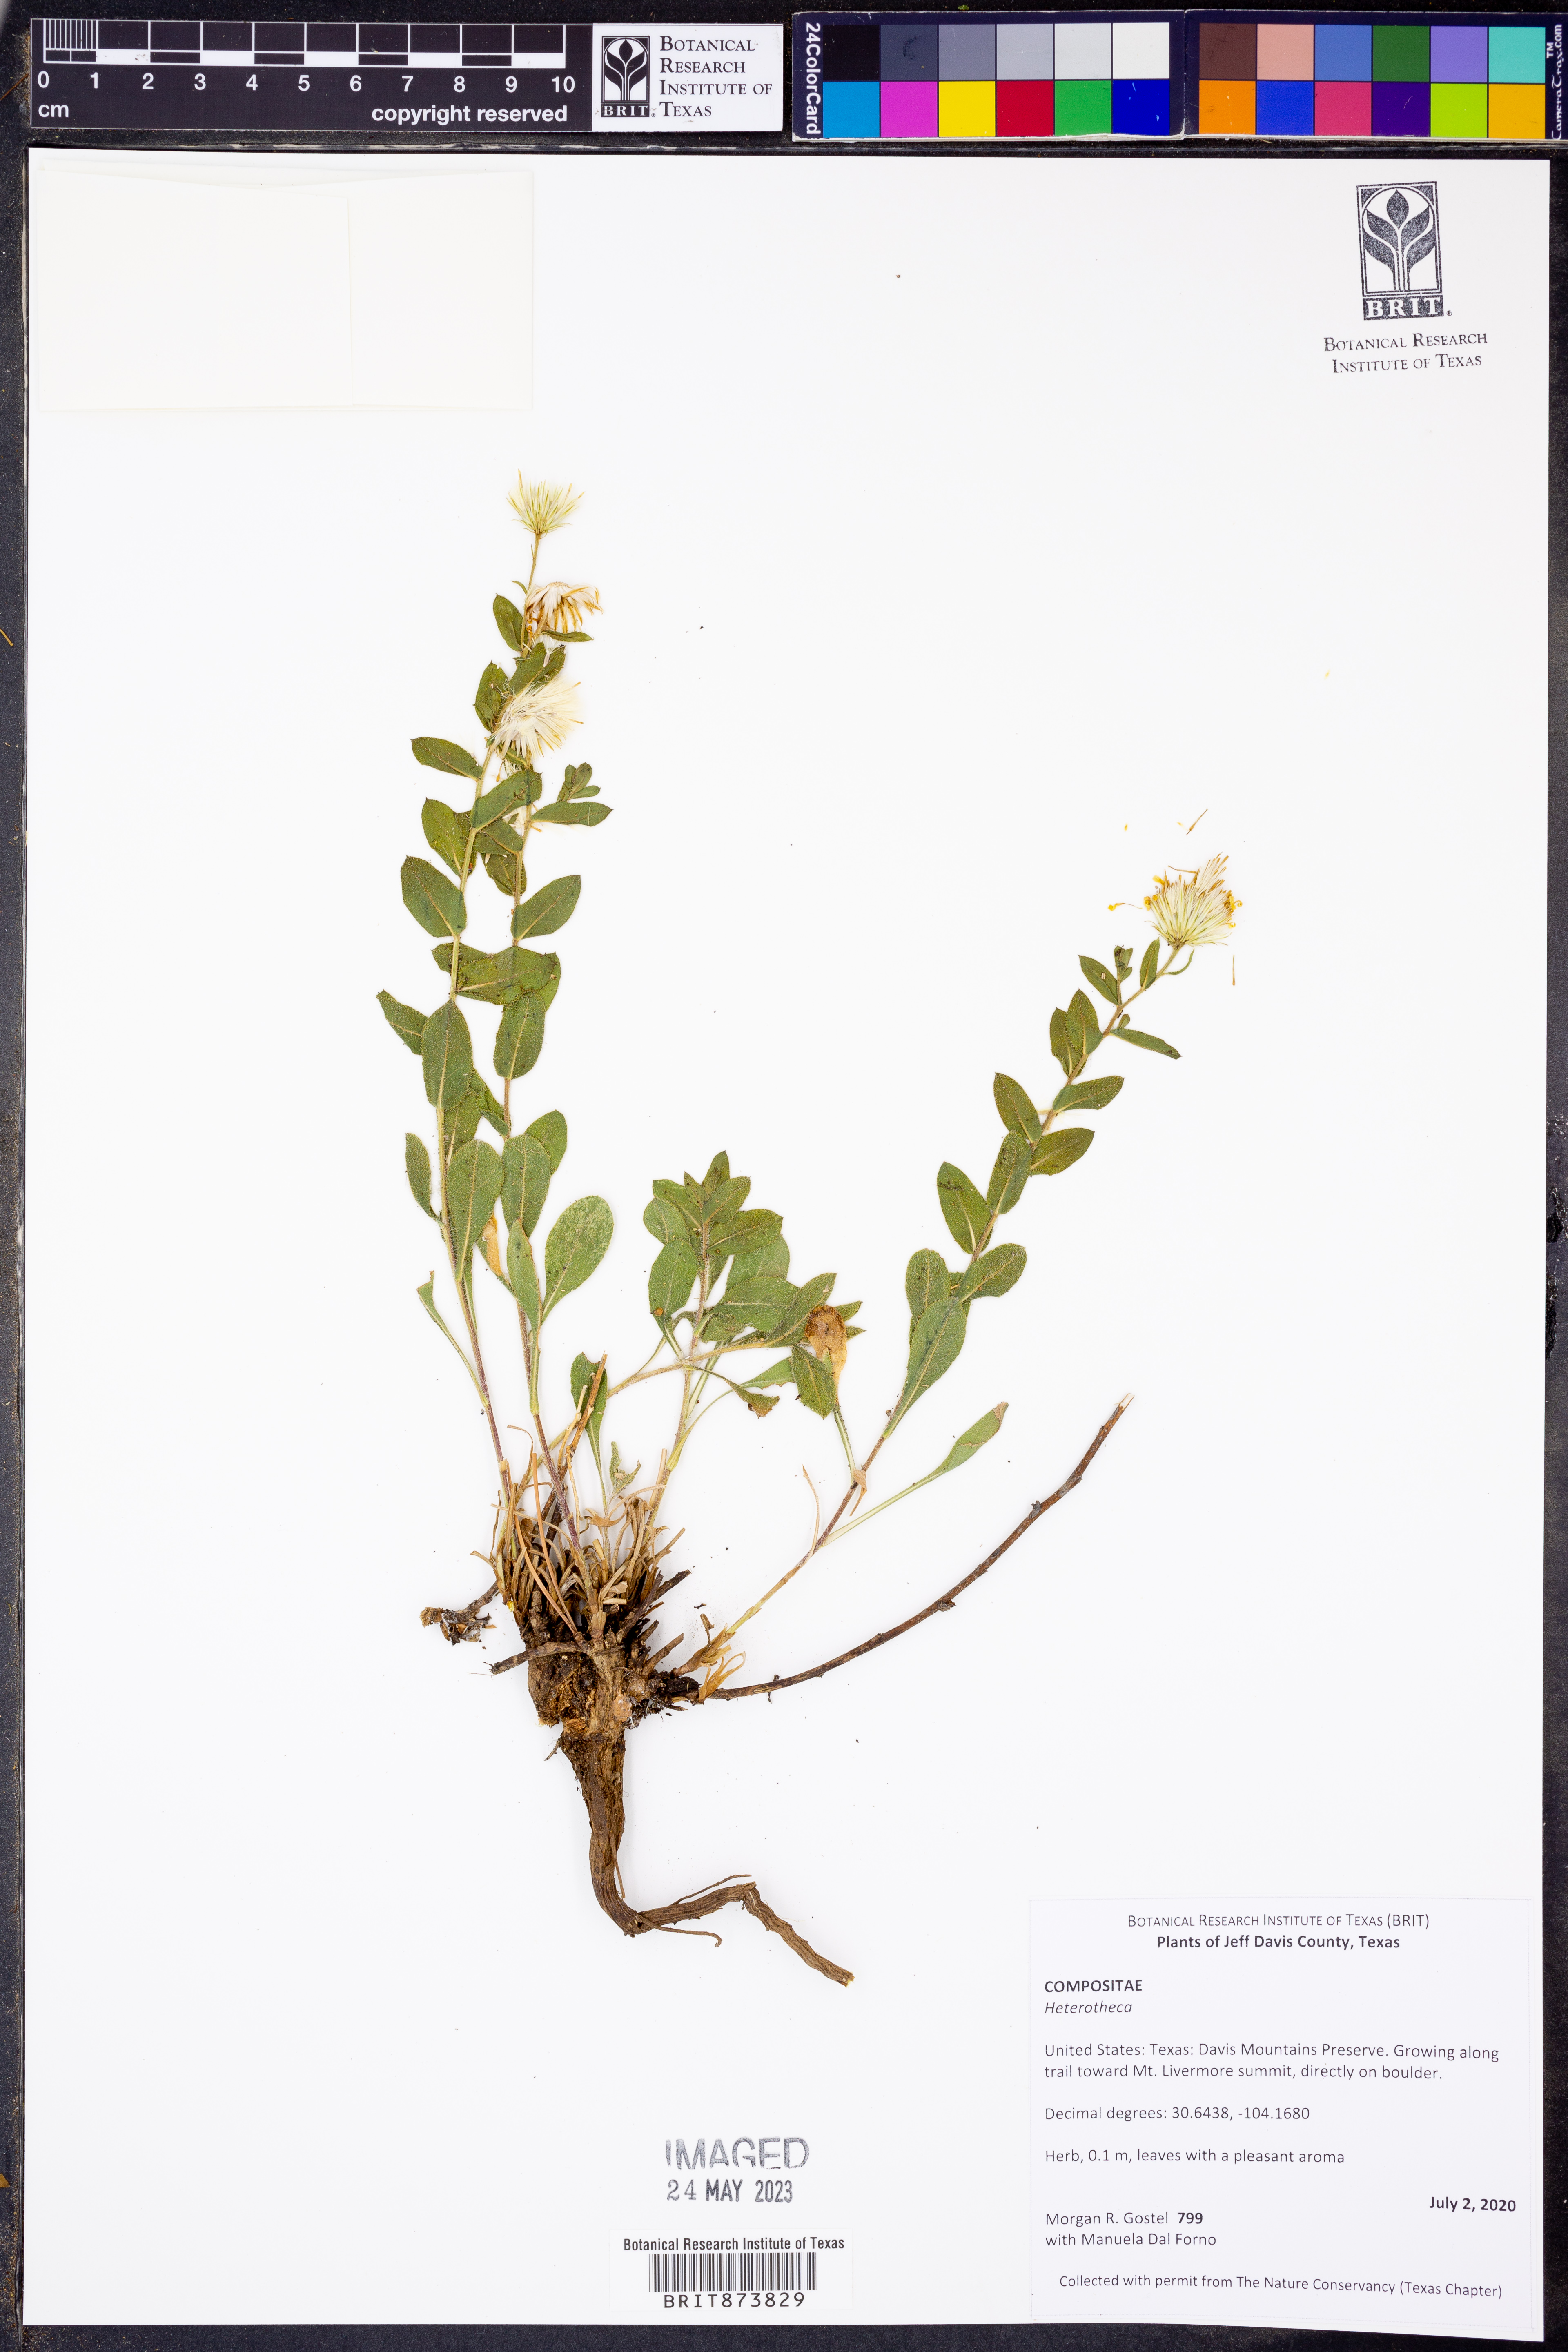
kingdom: Plantae
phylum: Tracheophyta
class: Magnoliopsida
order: Asterales
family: Asteraceae
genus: Heterotheca
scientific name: Heterotheca
